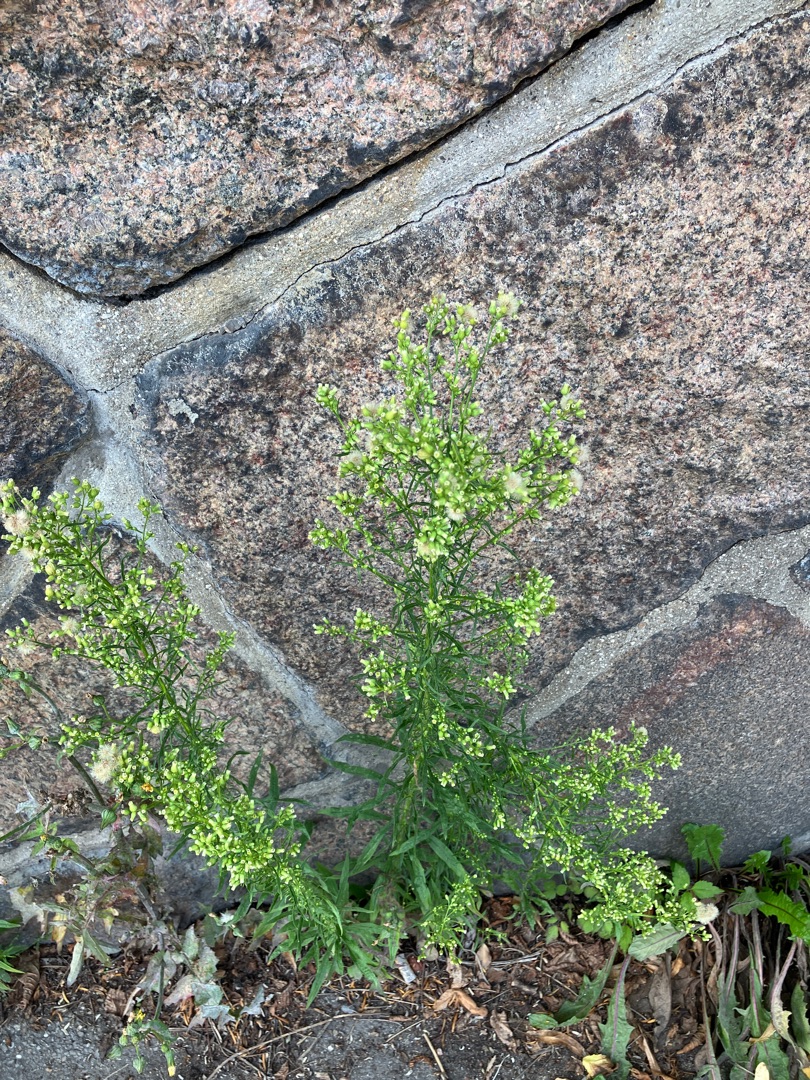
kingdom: Plantae
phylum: Tracheophyta
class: Magnoliopsida
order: Asterales
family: Asteraceae
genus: Erigeron
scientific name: Erigeron canadensis
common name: Kanadisk bakkestjerne
